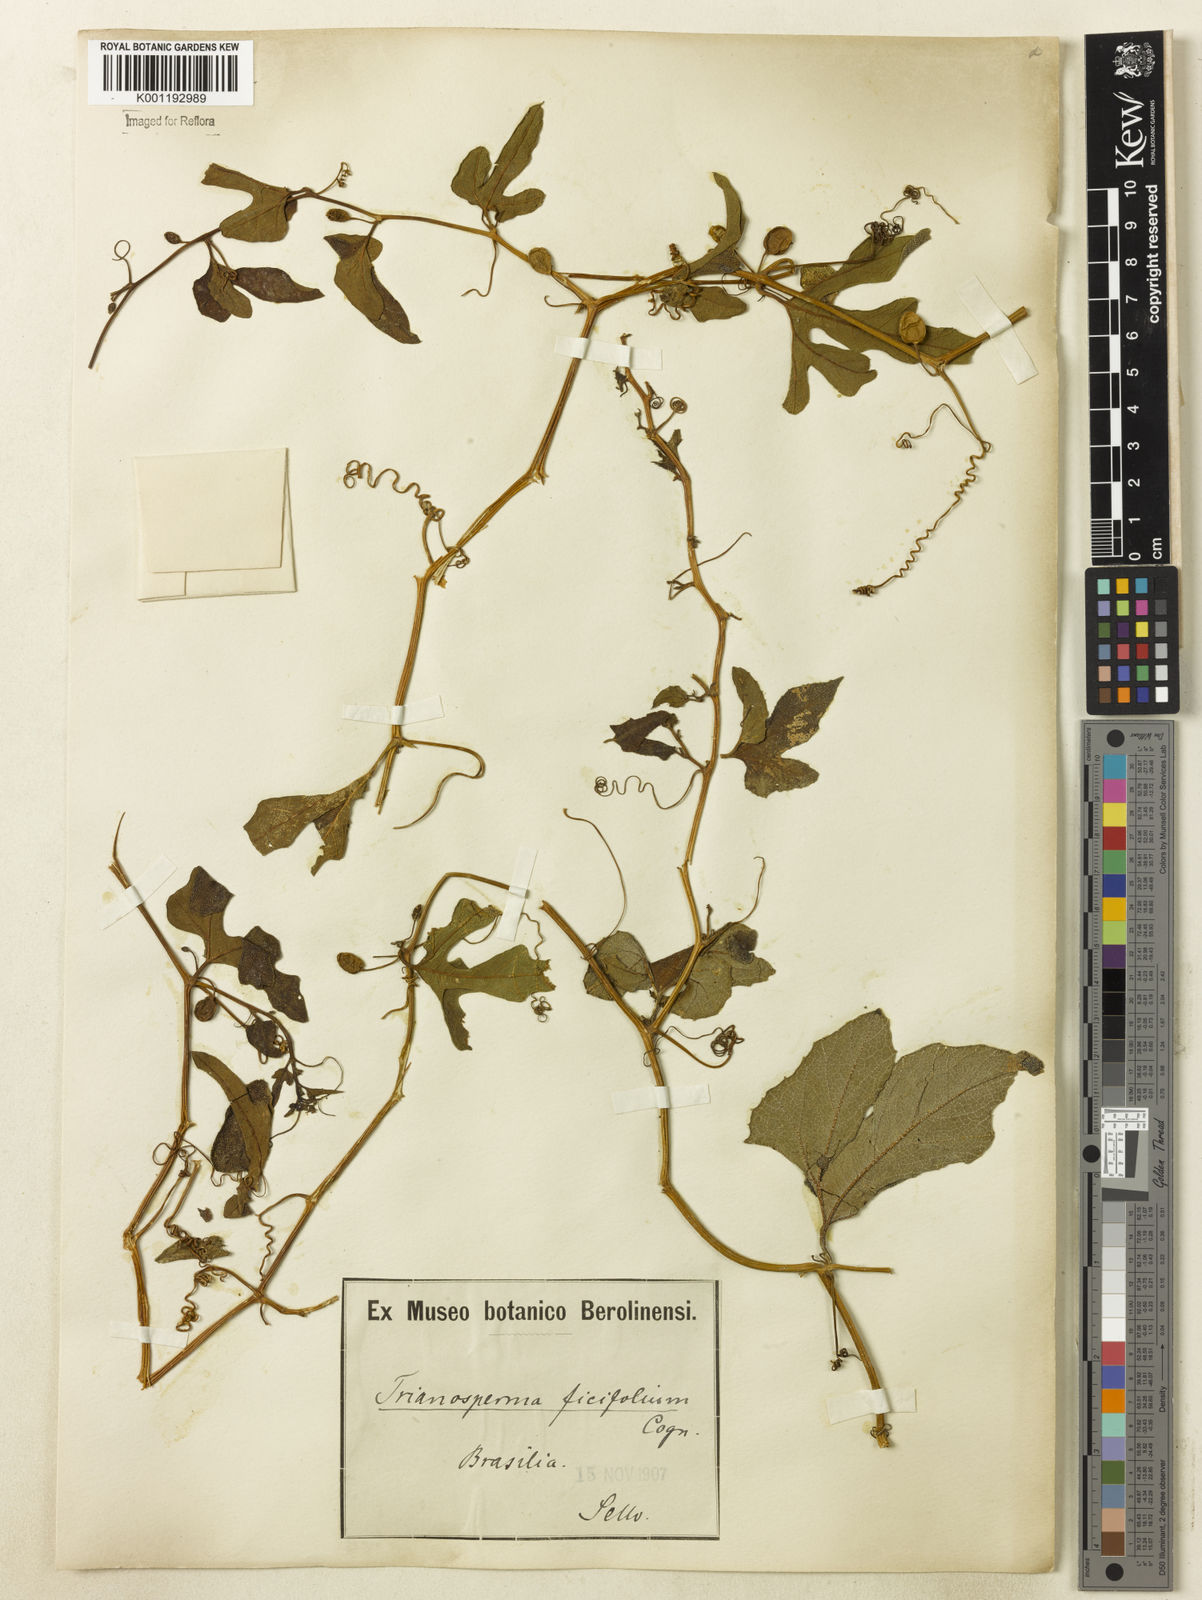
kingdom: Plantae
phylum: Tracheophyta
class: Magnoliopsida
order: Cucurbitales
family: Cucurbitaceae
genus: Cayaponia
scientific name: Cayaponia bonariensis
